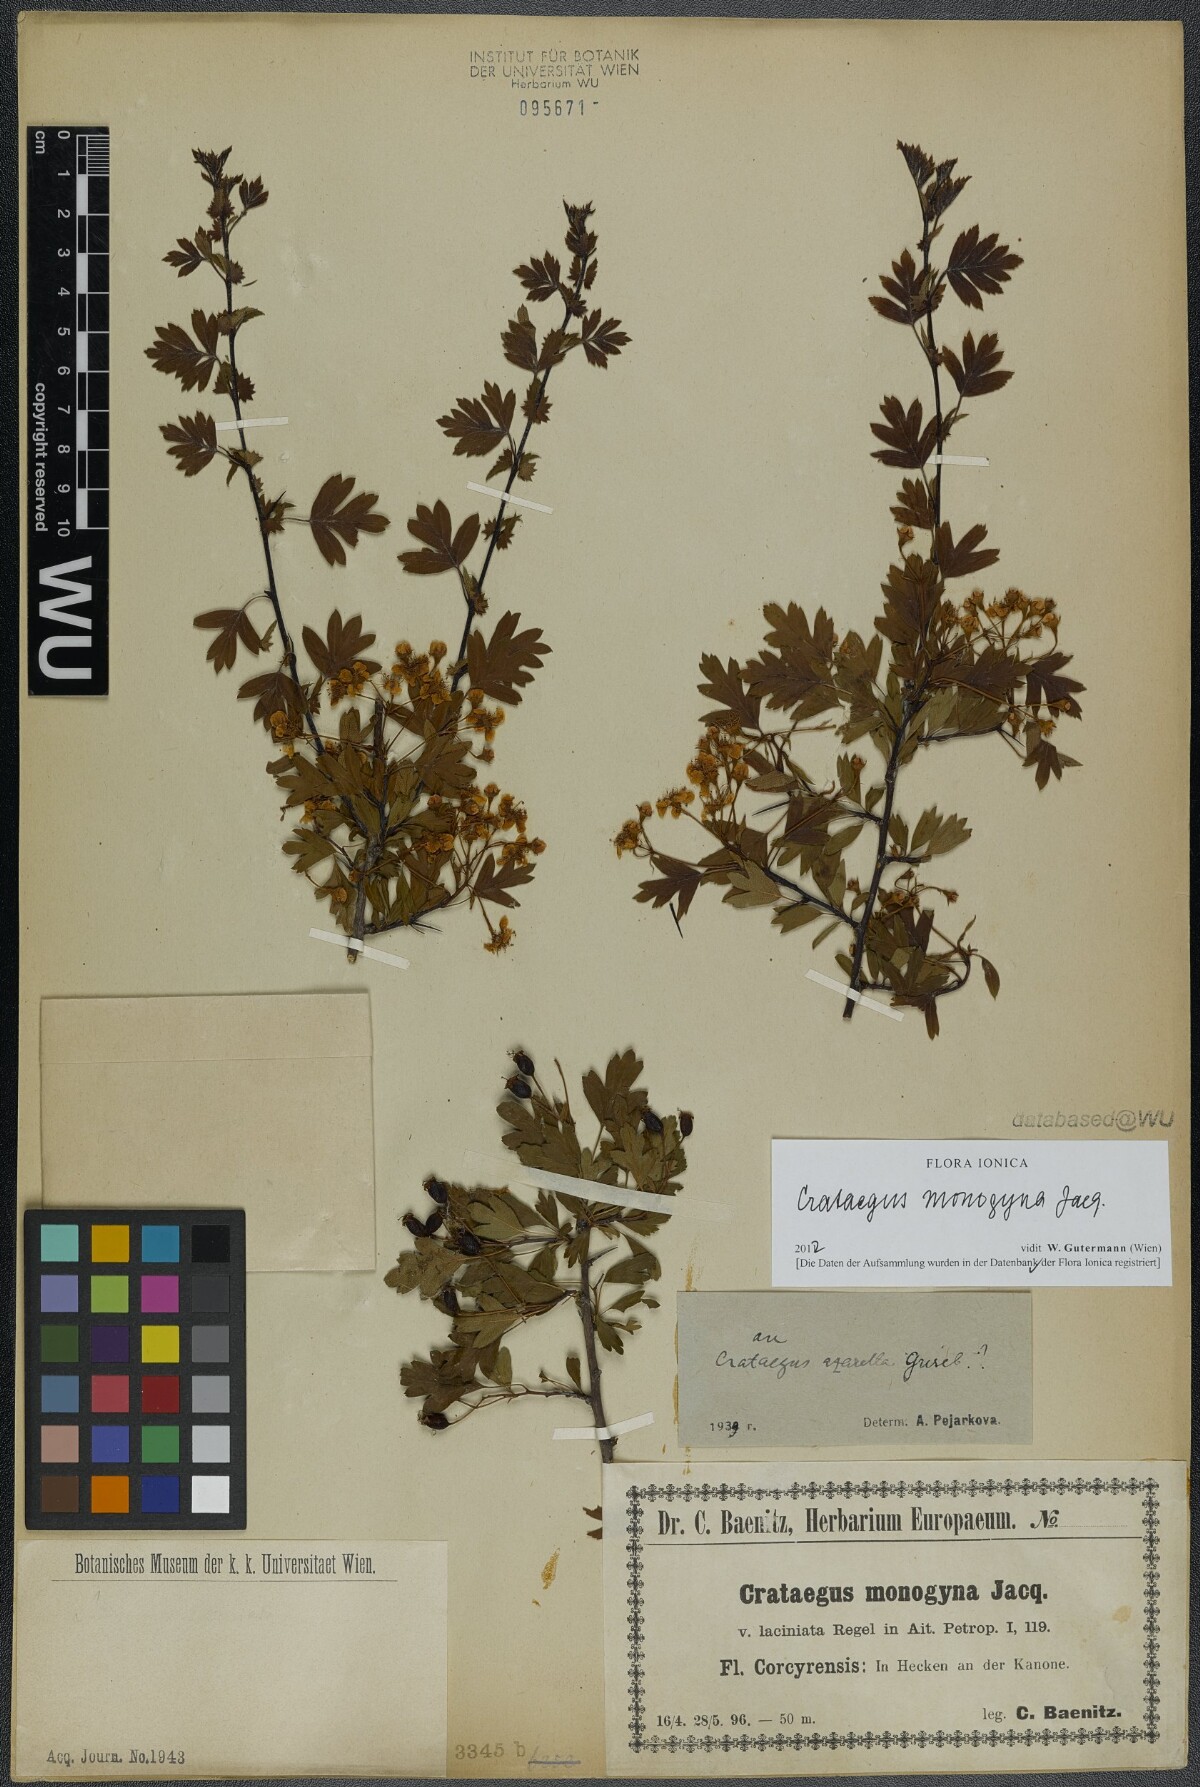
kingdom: Plantae
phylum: Tracheophyta
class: Magnoliopsida
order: Rosales
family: Rosaceae
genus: Crataegus
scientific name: Crataegus monogyna
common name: Hawthorn
